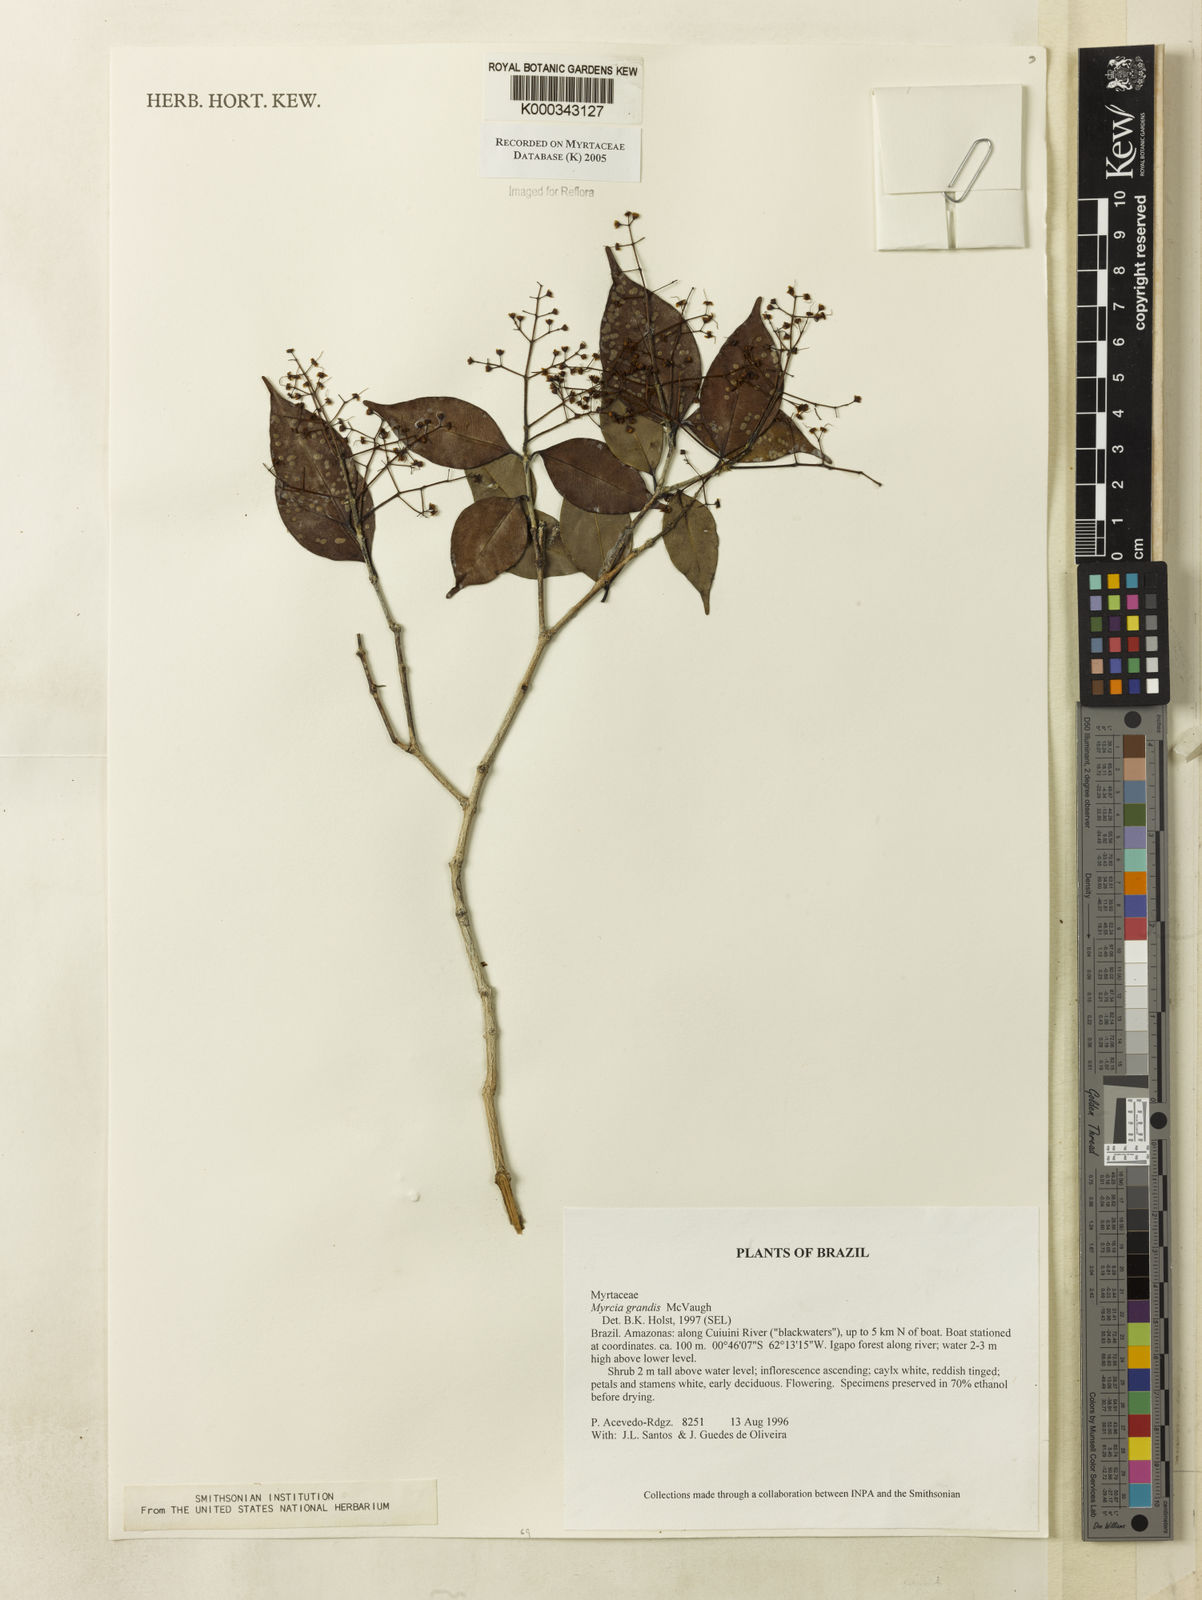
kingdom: Plantae
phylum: Tracheophyta
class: Magnoliopsida
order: Myrtales
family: Myrtaceae
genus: Myrcia
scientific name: Myrcia grandis
